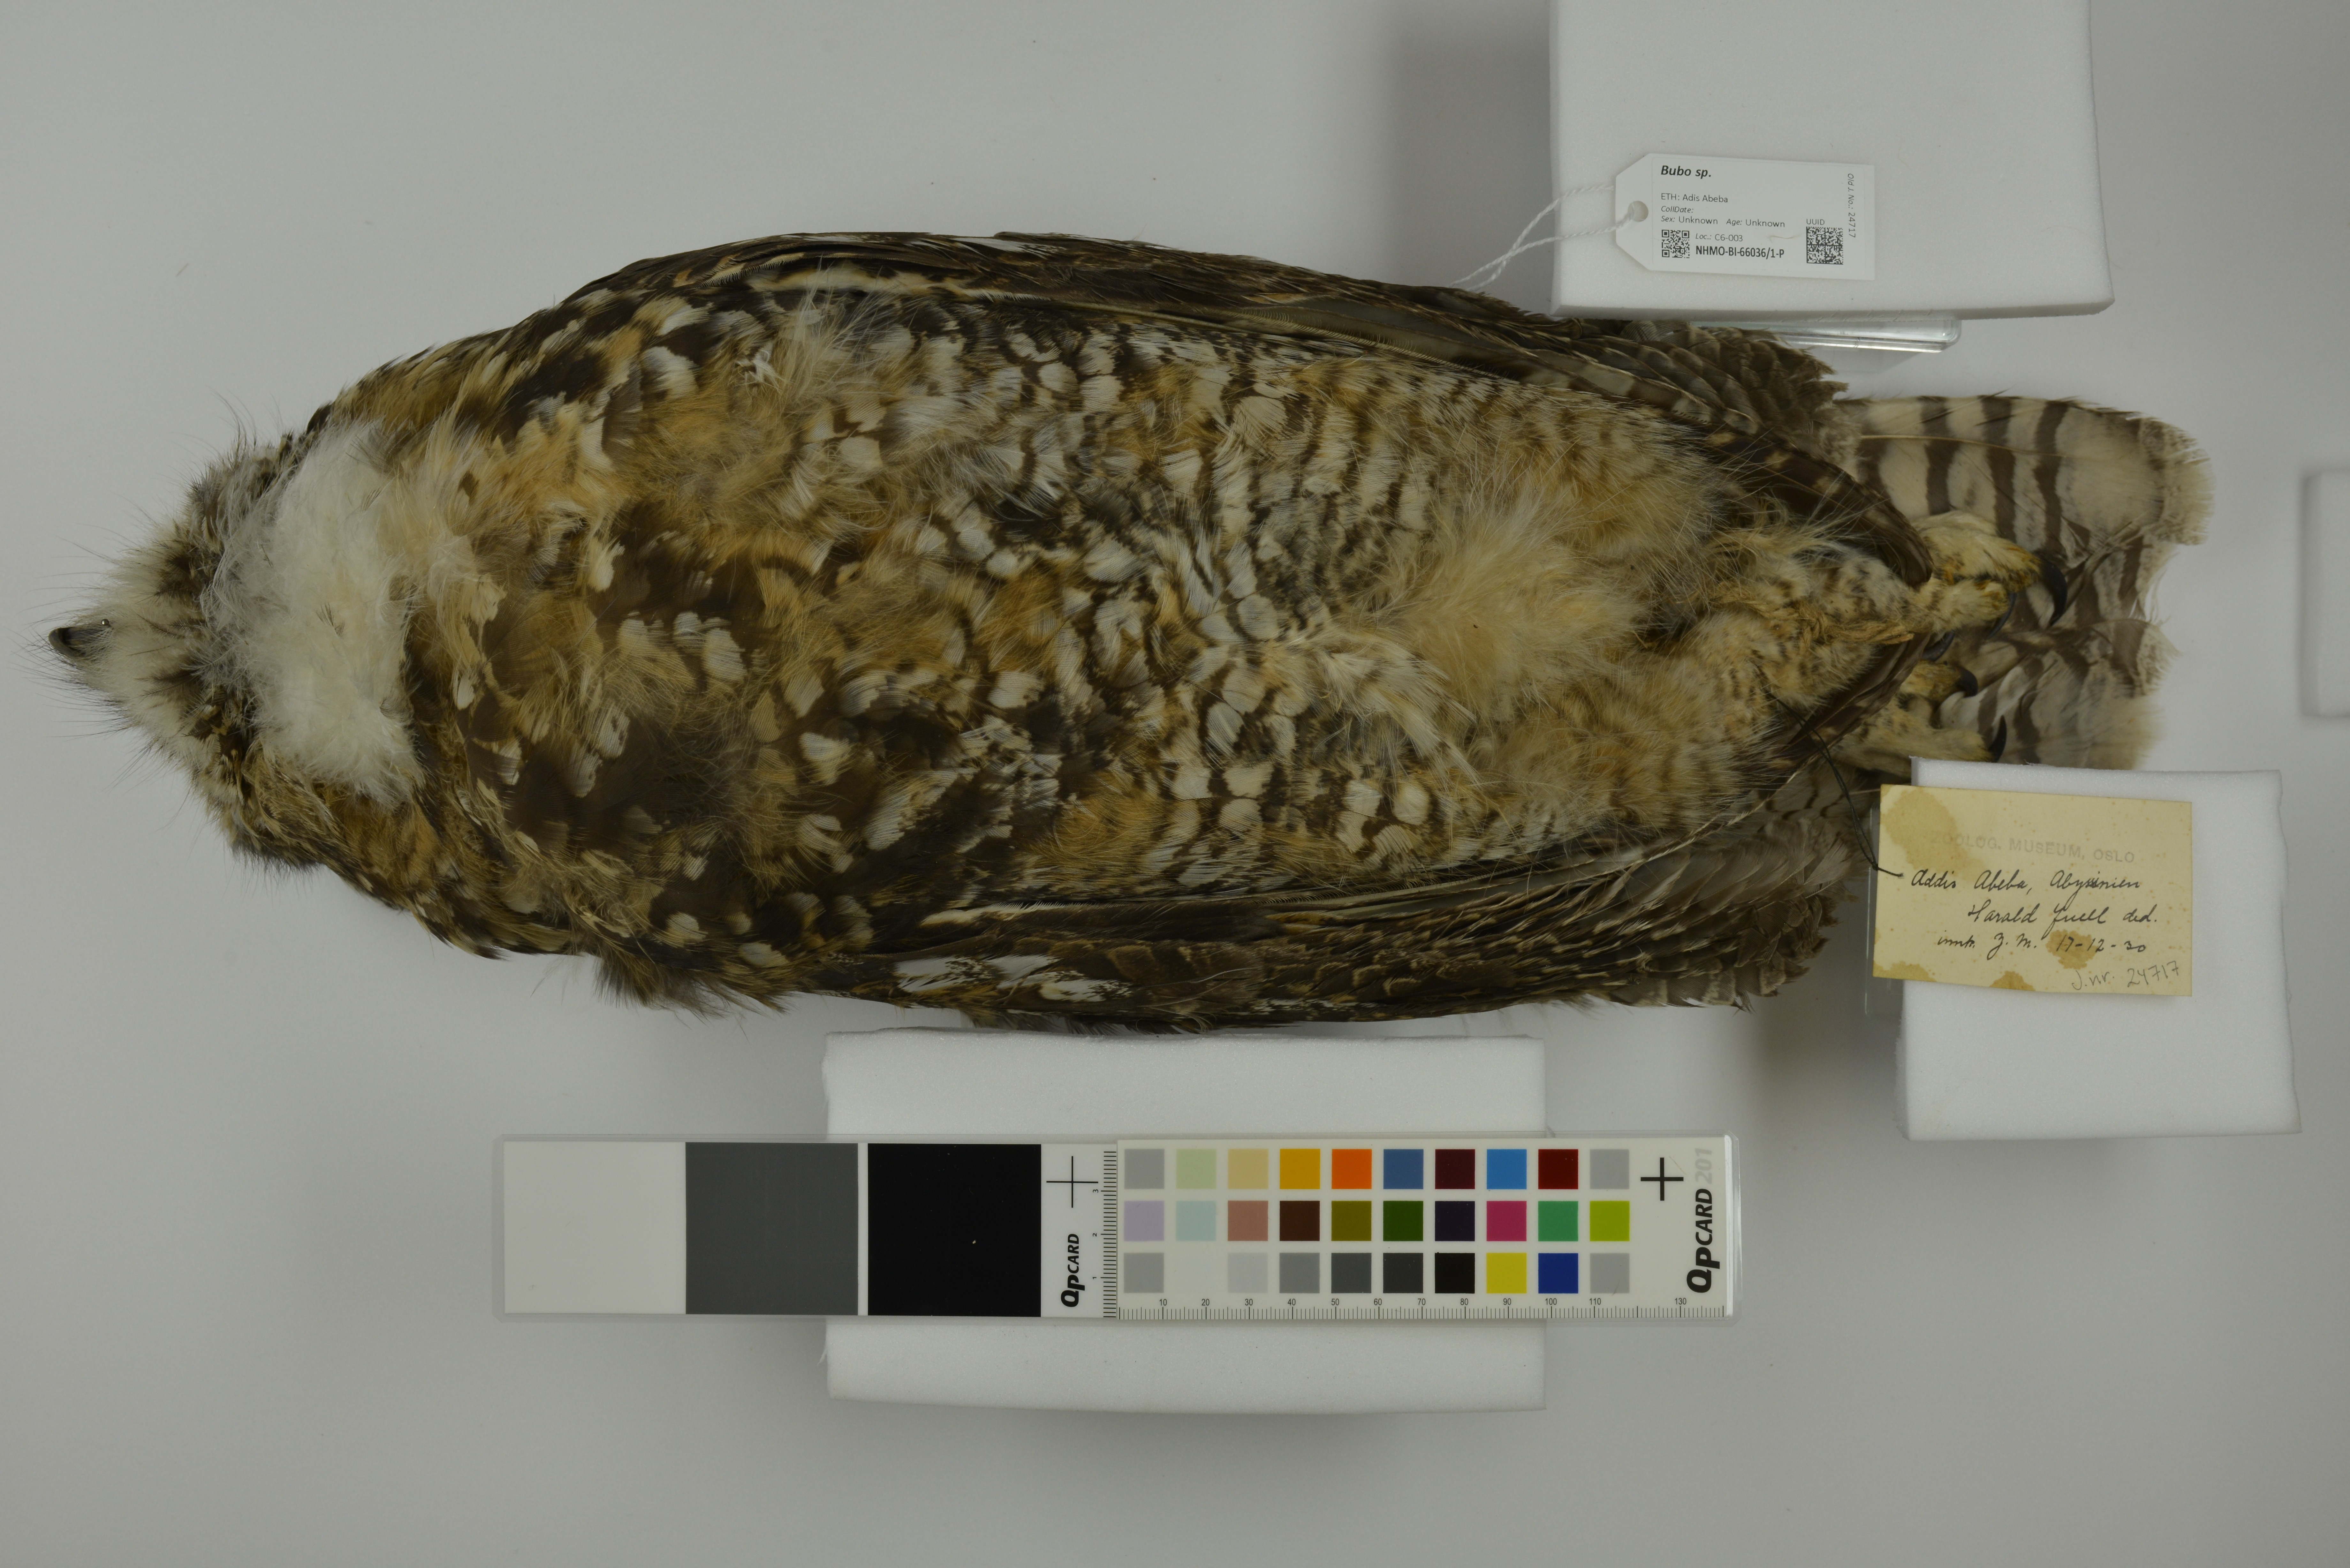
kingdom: Animalia
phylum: Chordata
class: Aves
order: Strigiformes
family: Strigidae
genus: Bubo
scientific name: Bubo
